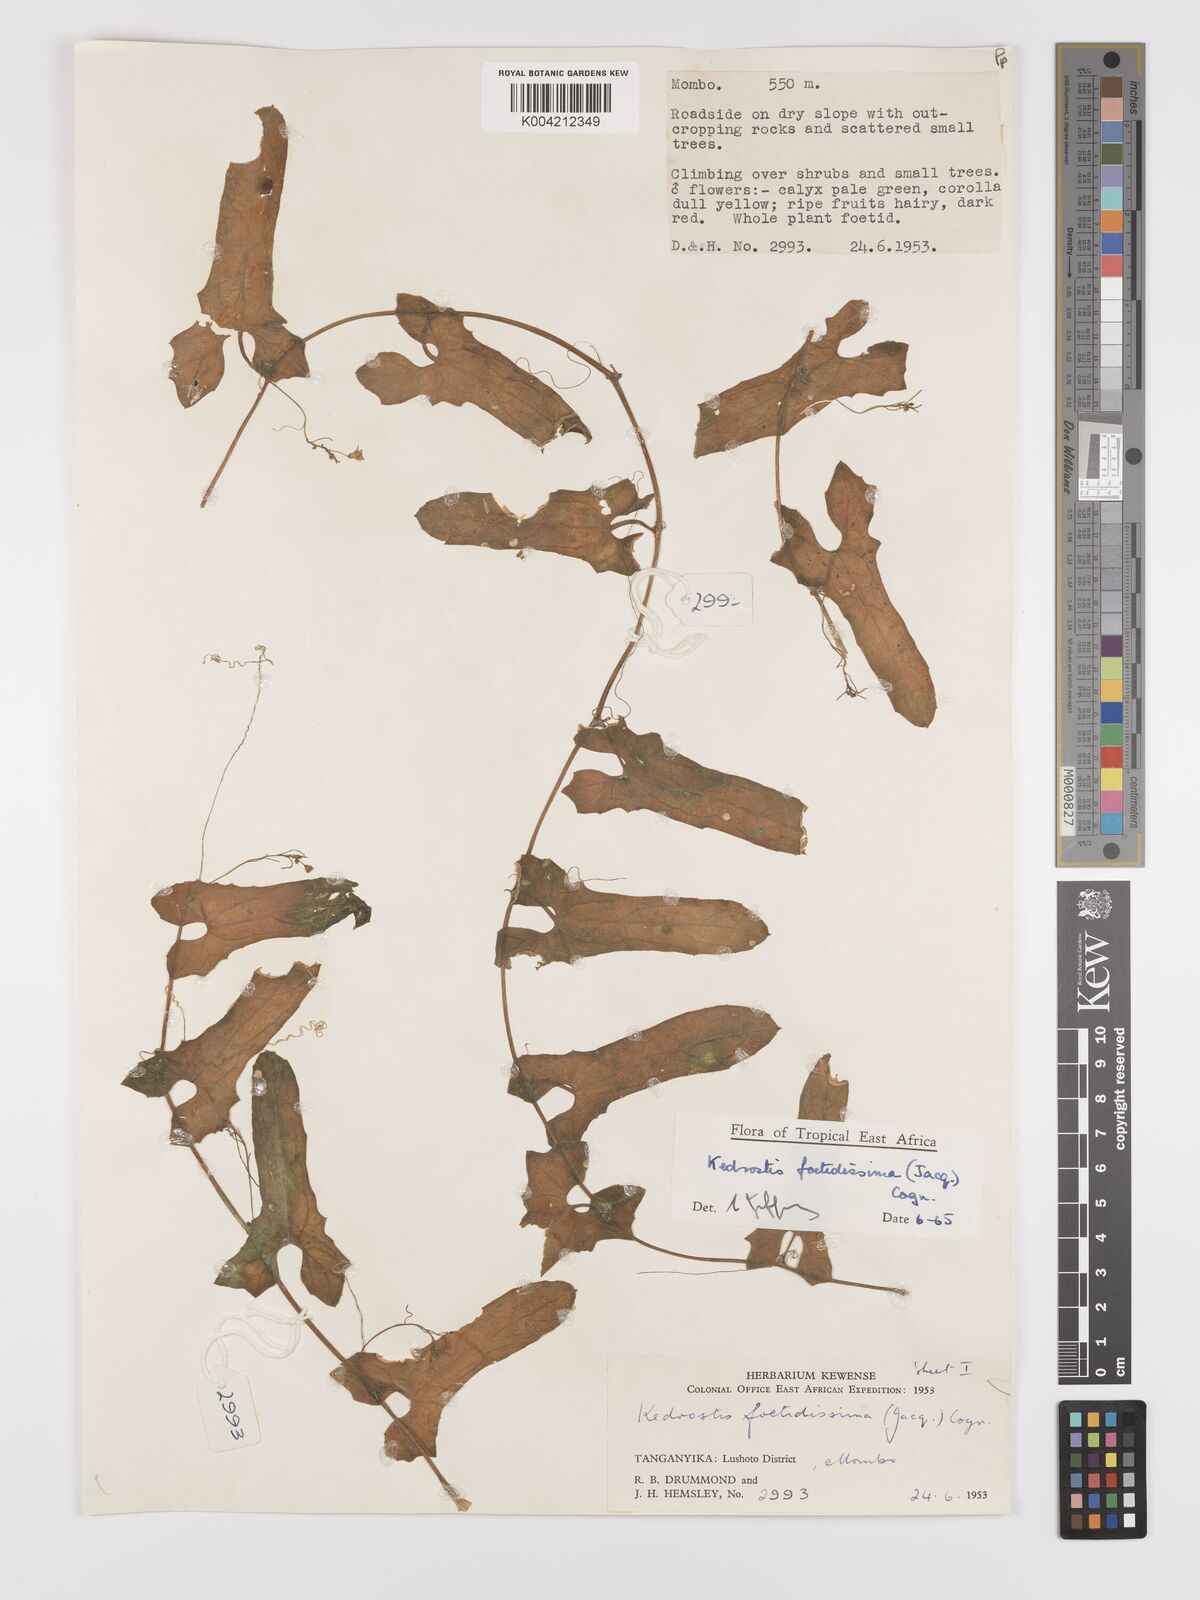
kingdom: Plantae
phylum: Tracheophyta
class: Magnoliopsida
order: Cucurbitales
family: Cucurbitaceae
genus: Kedrostis
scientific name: Kedrostis foetidissima
